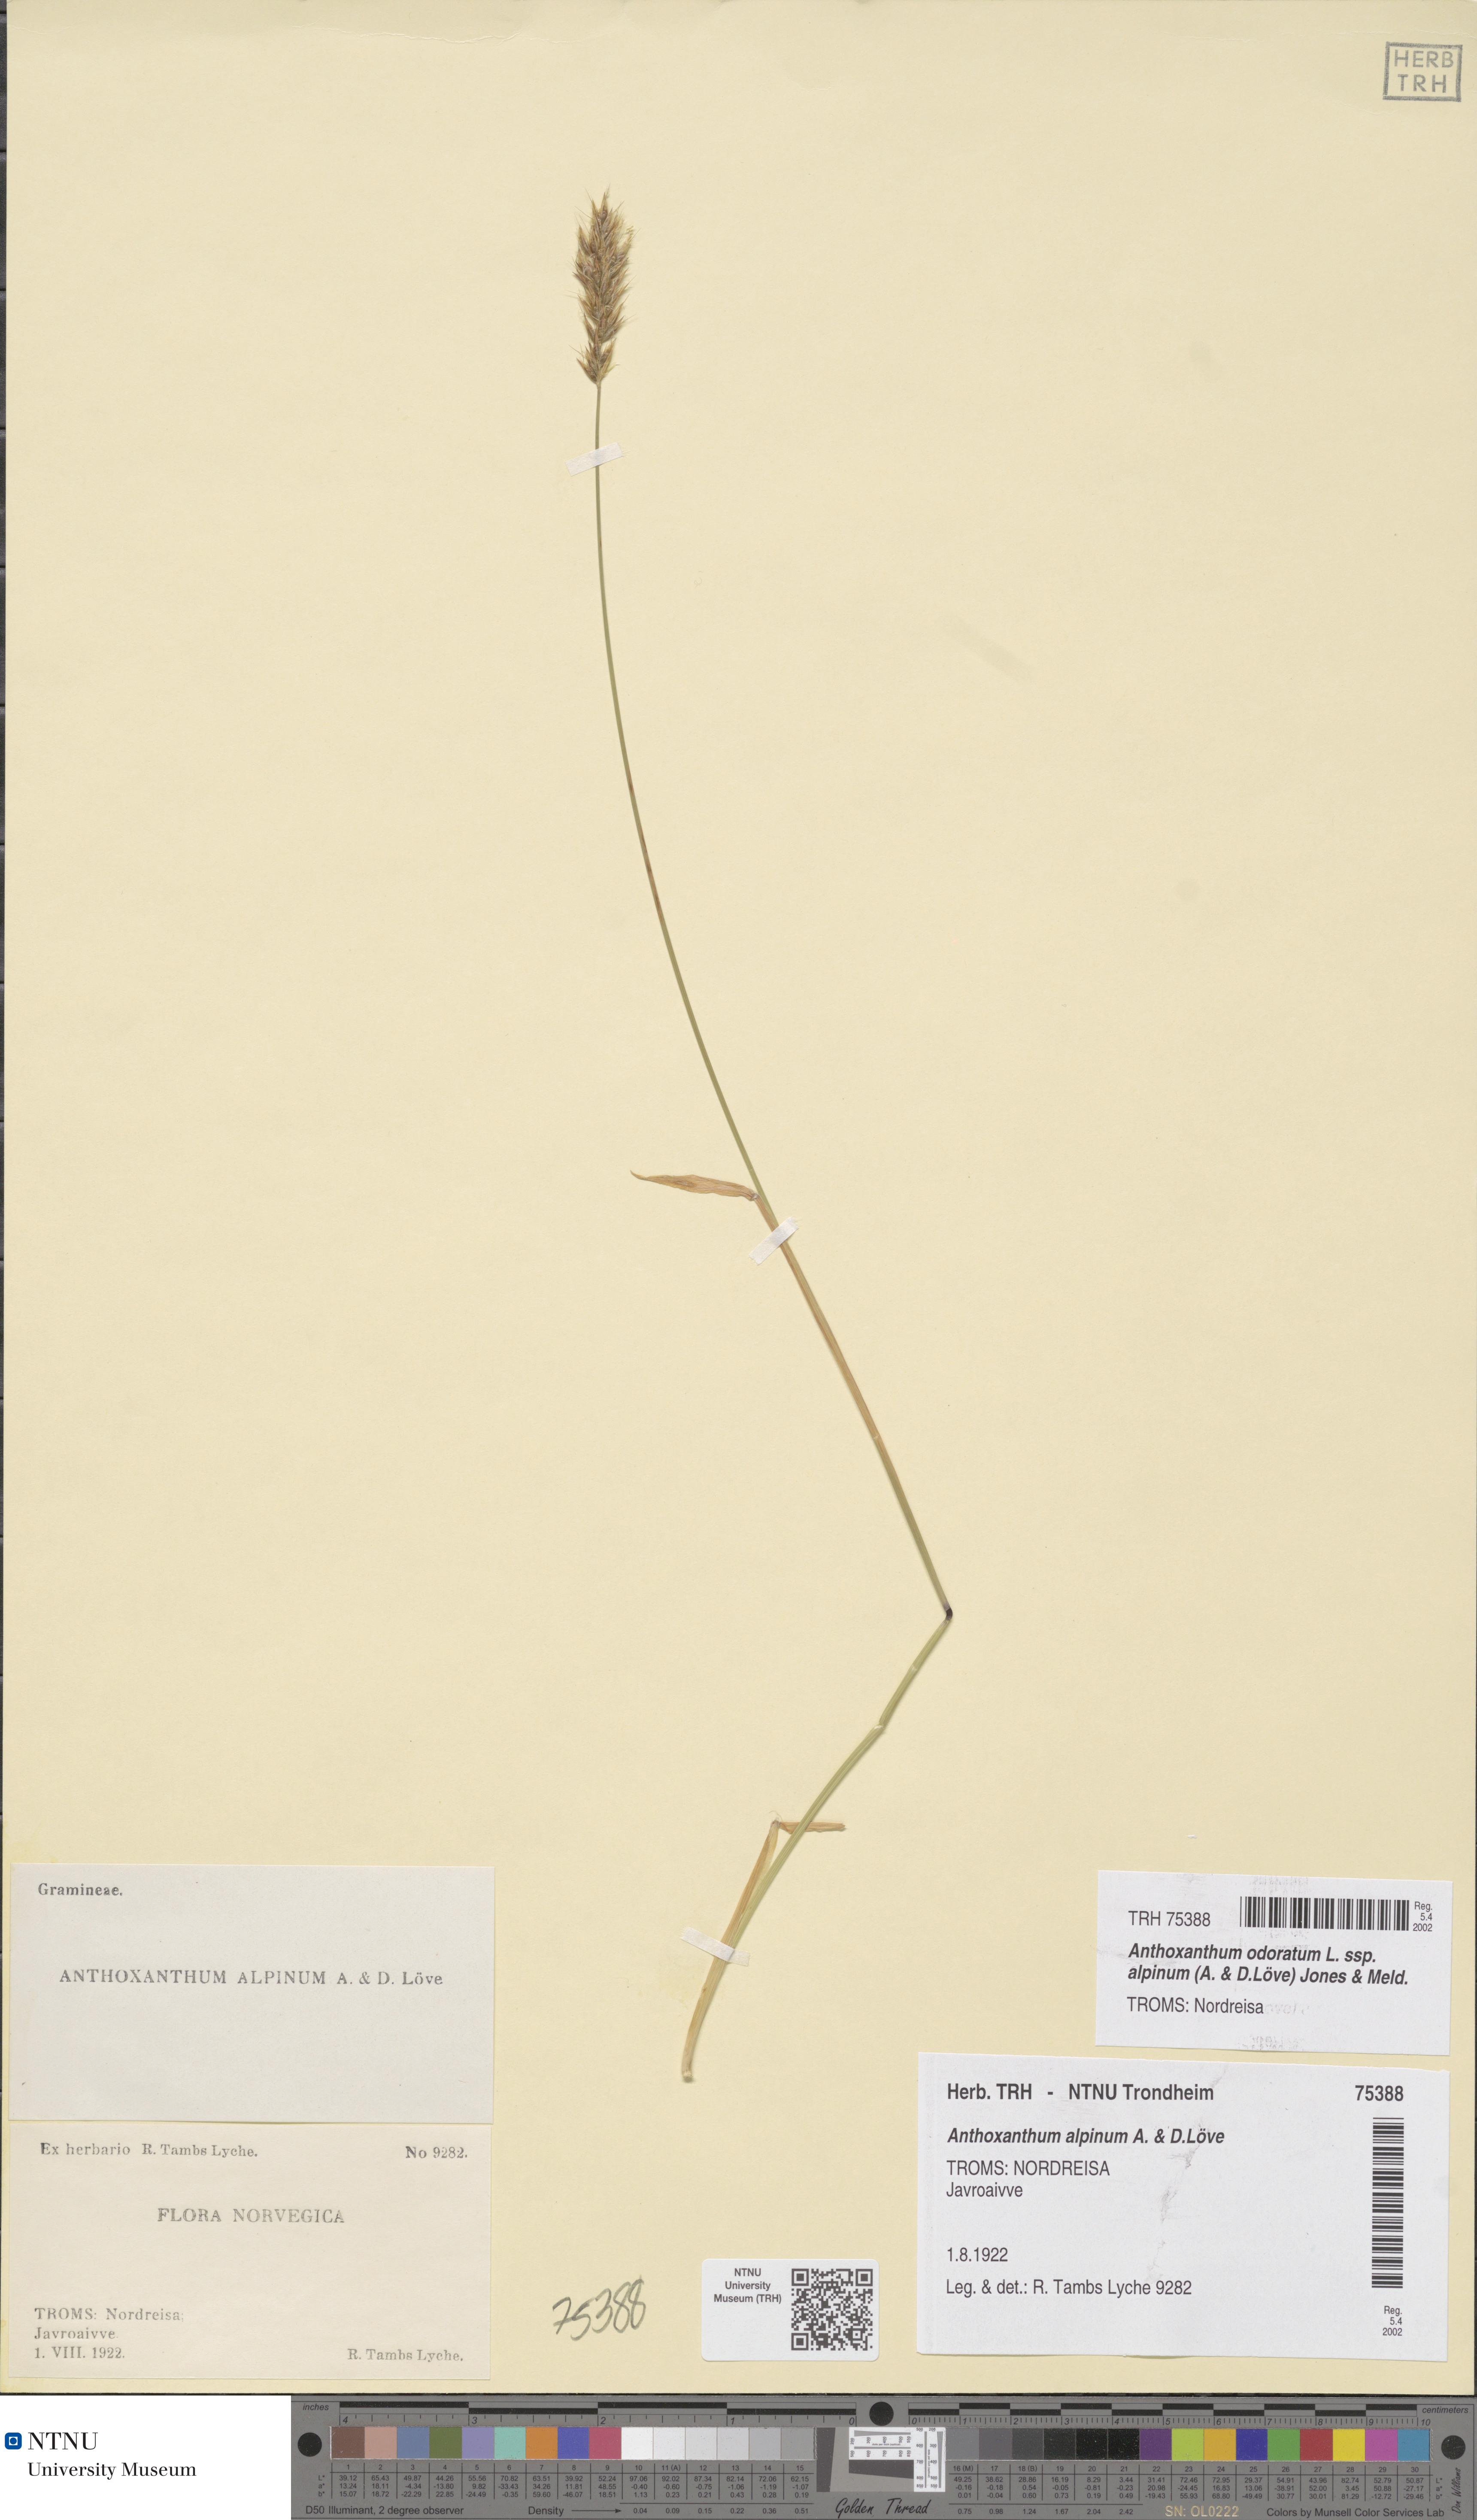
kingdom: Plantae
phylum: Tracheophyta
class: Liliopsida
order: Poales
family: Poaceae
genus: Anthoxanthum
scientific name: Anthoxanthum nipponicum
